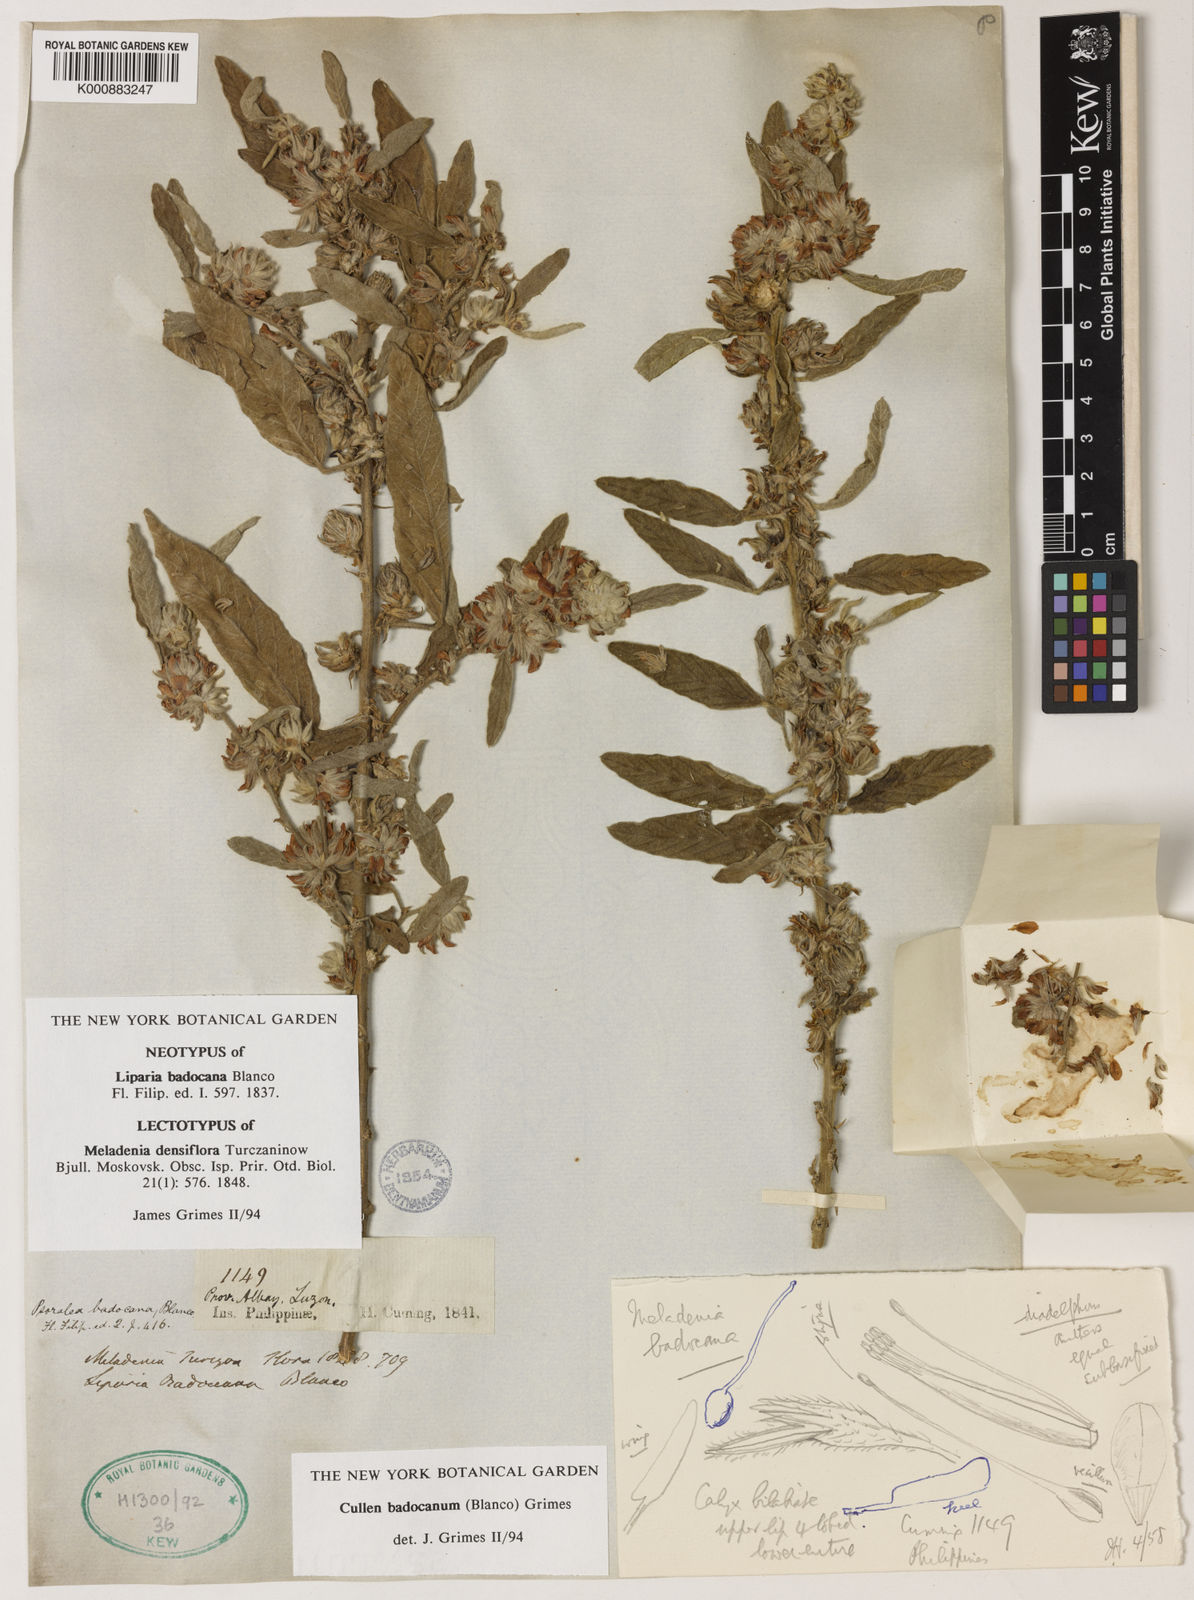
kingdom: Plantae
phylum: Tracheophyta
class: Magnoliopsida
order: Fabales
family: Fabaceae
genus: Cullen
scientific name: Cullen
